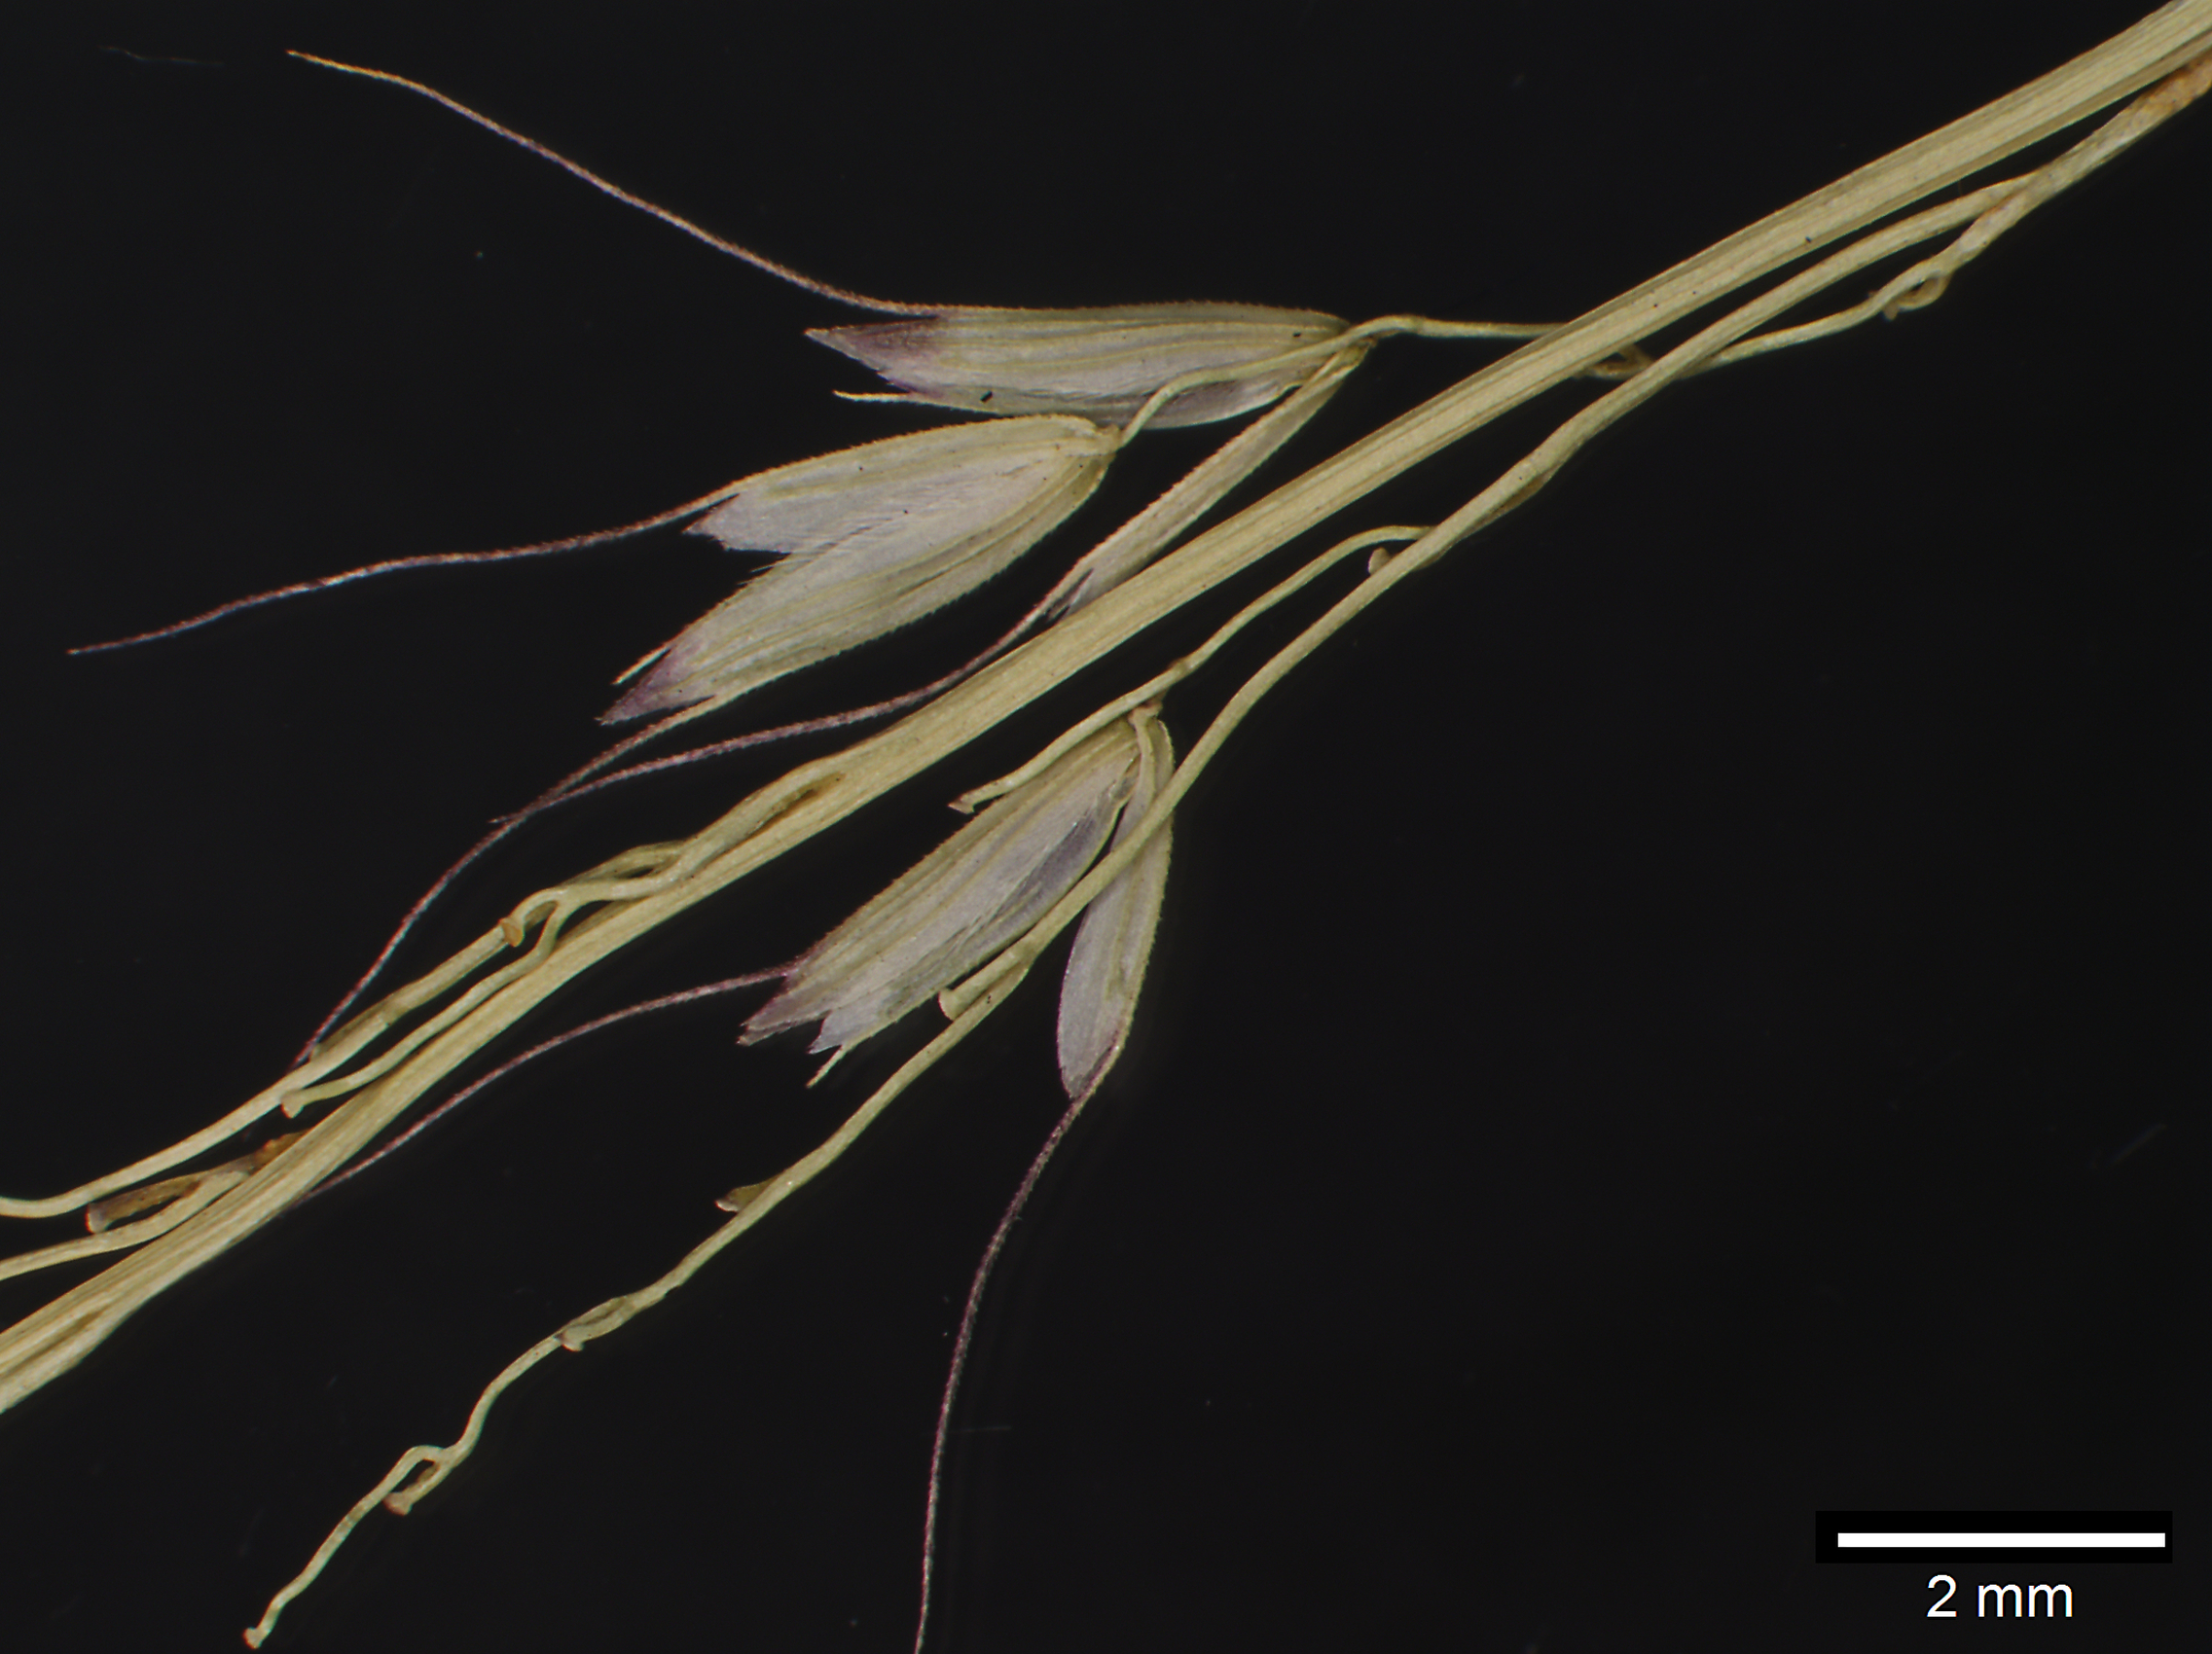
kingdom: Plantae
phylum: Tracheophyta
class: Liliopsida
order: Poales
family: Poaceae
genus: Reynaudia
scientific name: Reynaudia filiformis
